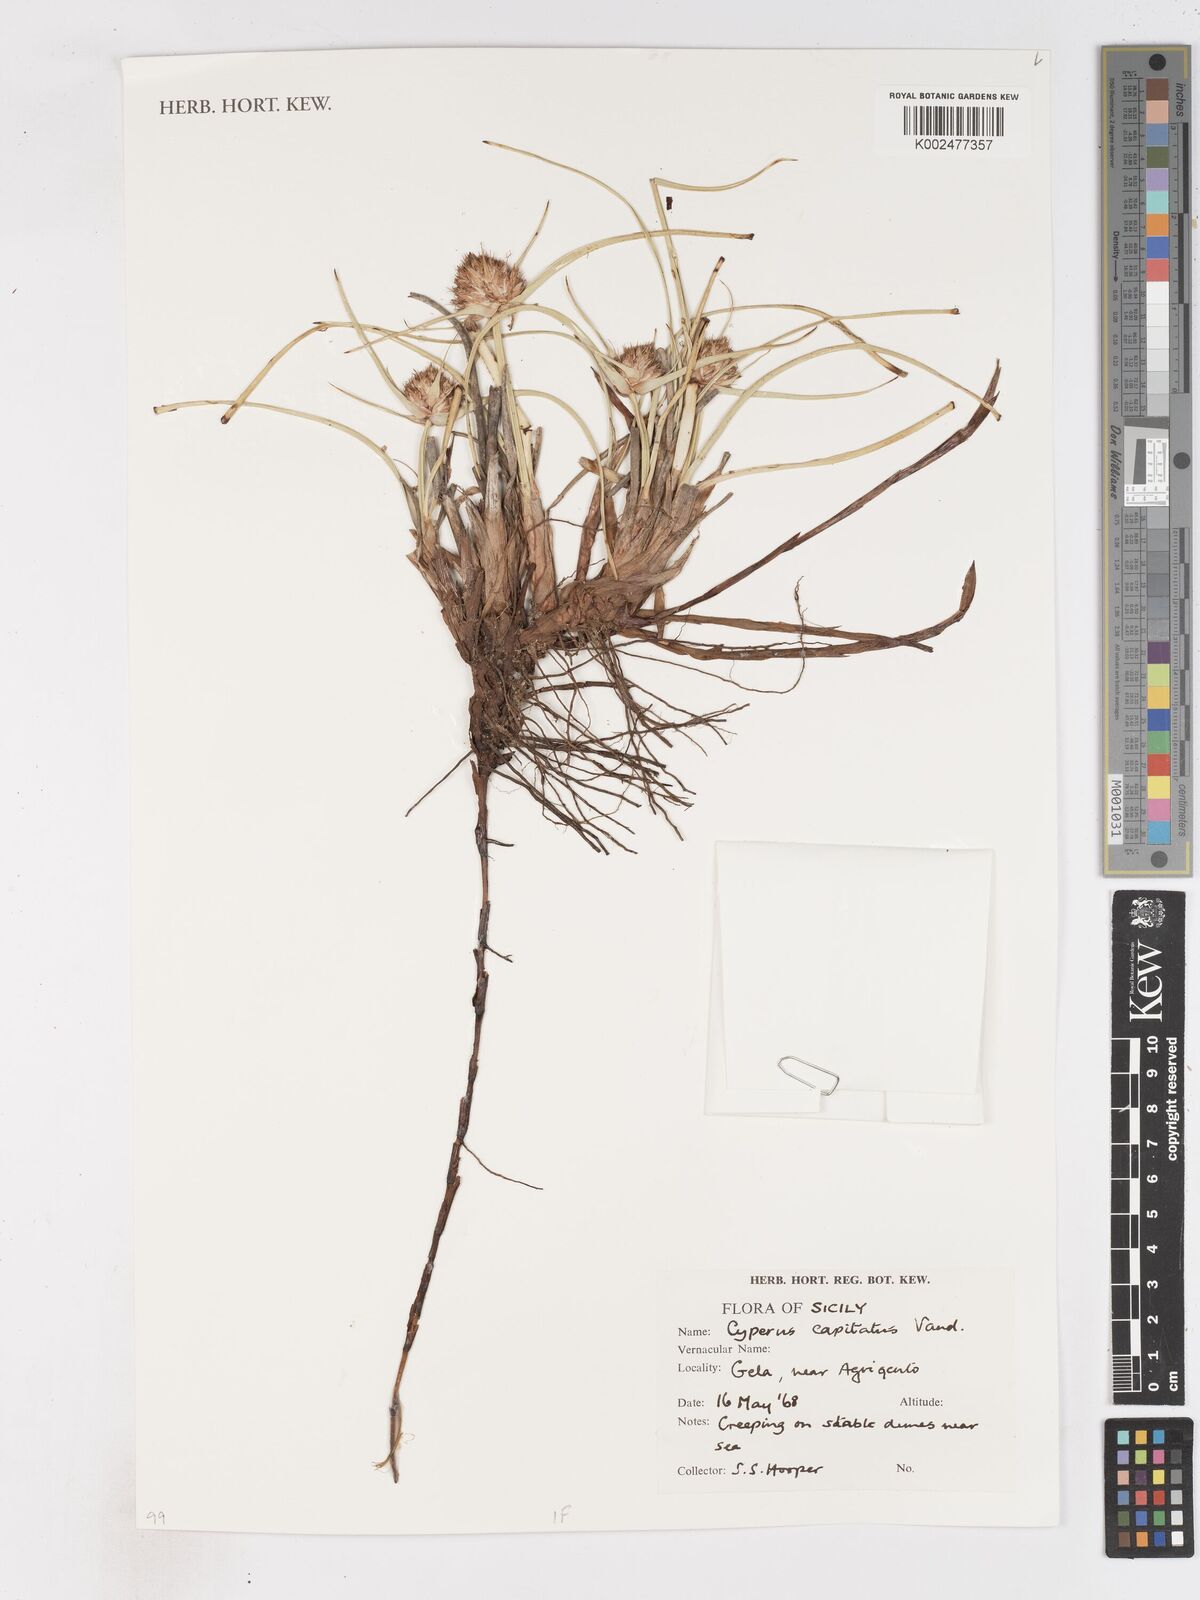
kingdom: Plantae
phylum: Tracheophyta
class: Liliopsida
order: Poales
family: Cyperaceae
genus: Cyperus
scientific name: Cyperus capitatus
